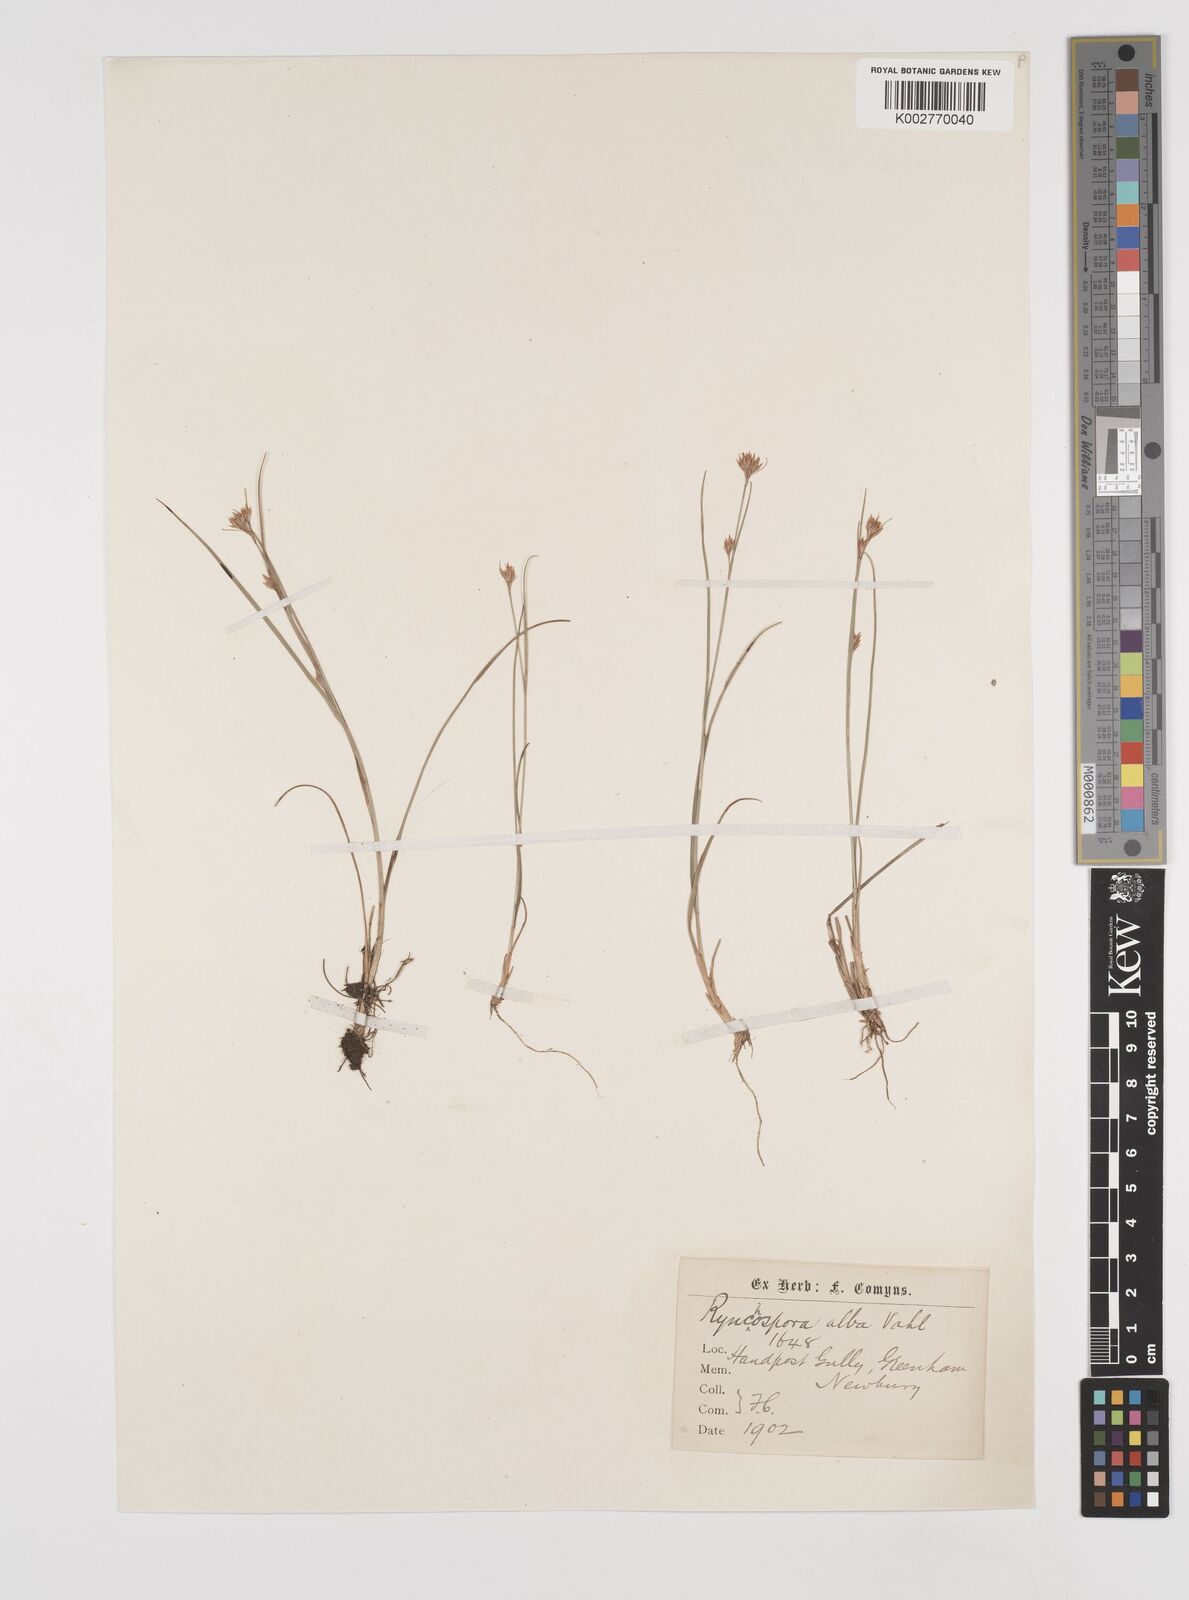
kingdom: Plantae
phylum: Tracheophyta
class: Liliopsida
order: Poales
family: Cyperaceae
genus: Rhynchospora
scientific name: Rhynchospora alba
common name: White beak-sedge
